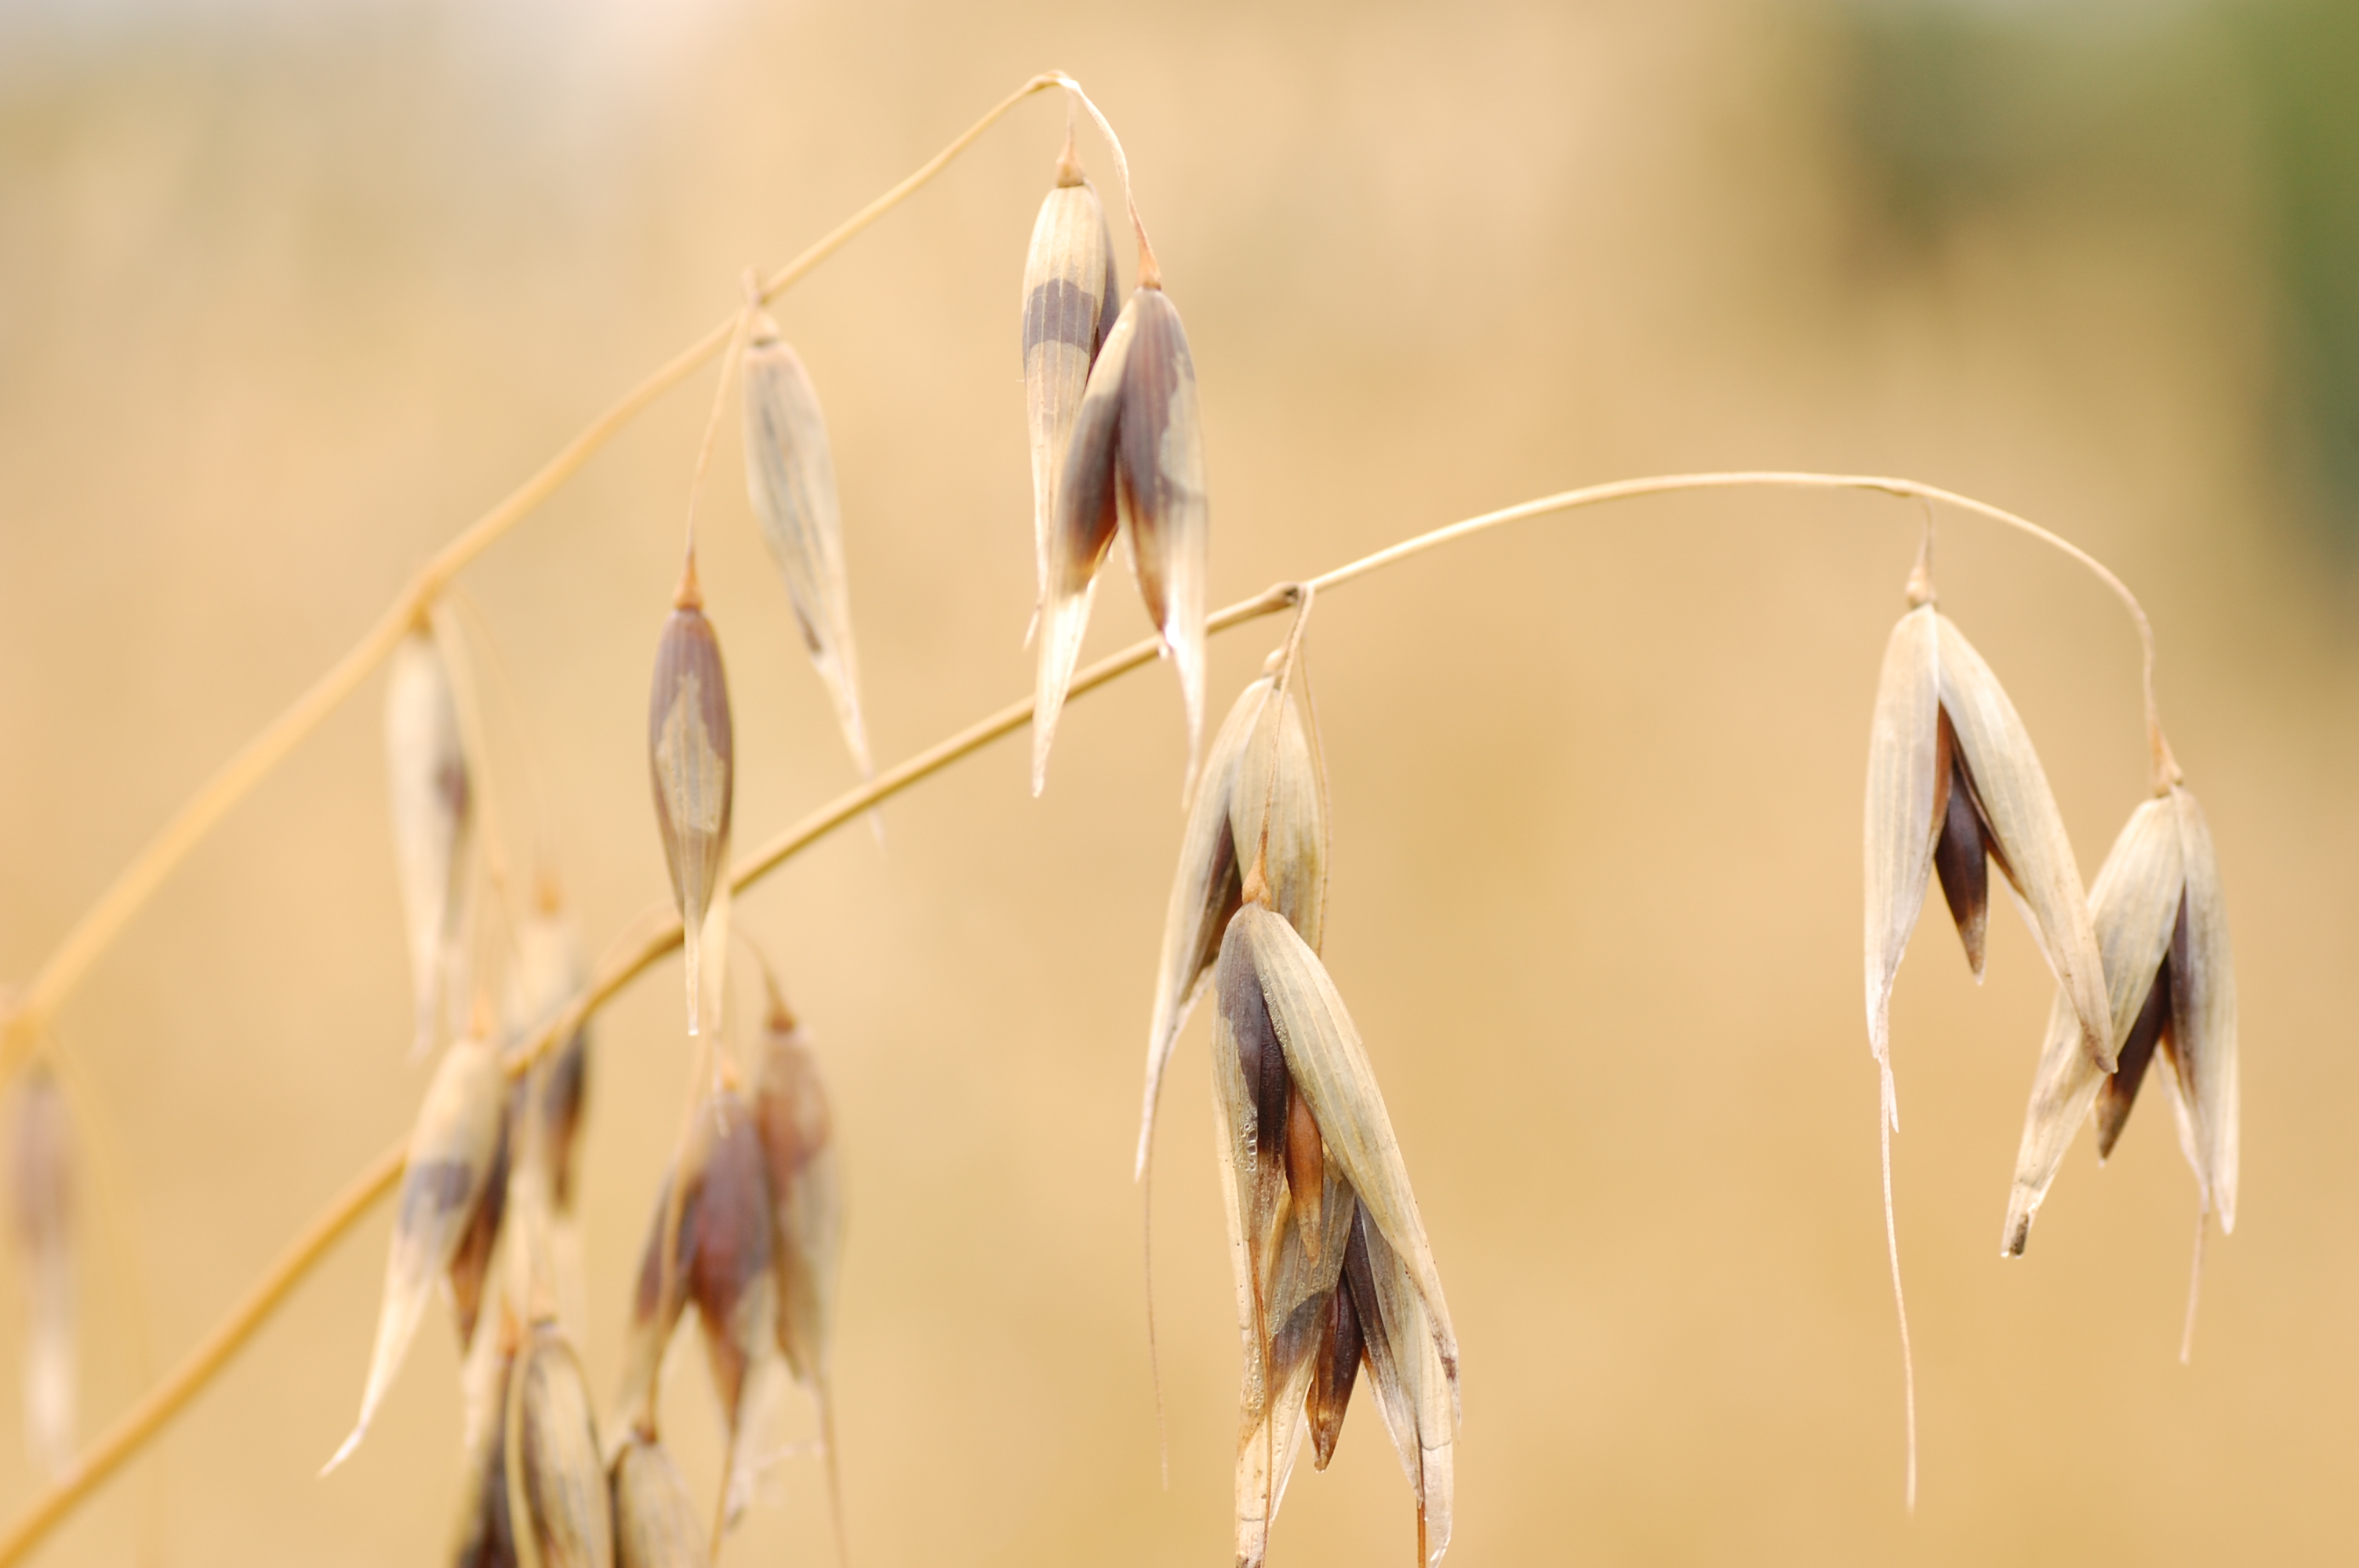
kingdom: Plantae
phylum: Tracheophyta
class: Liliopsida
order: Poales
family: Poaceae
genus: Avena
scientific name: Avena sativa
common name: Oat
